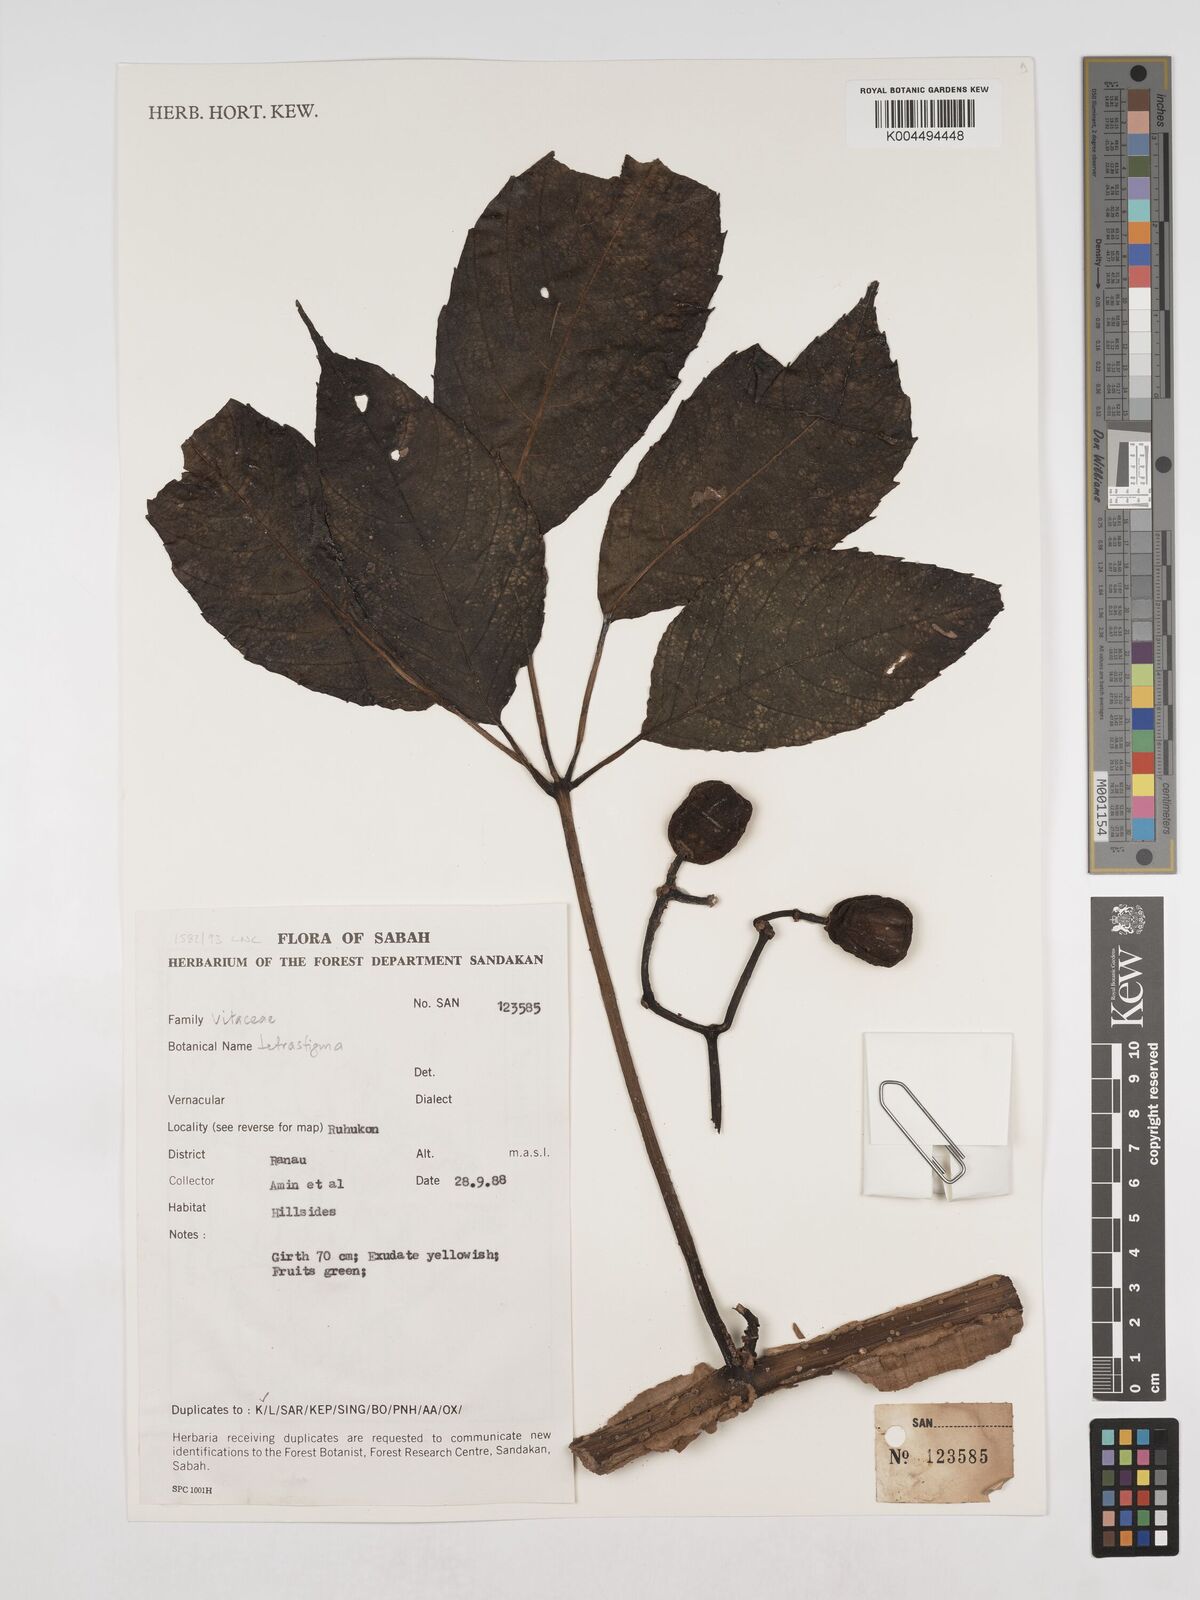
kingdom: Plantae
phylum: Tracheophyta
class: Magnoliopsida
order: Vitales
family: Vitaceae
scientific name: Vitaceae
